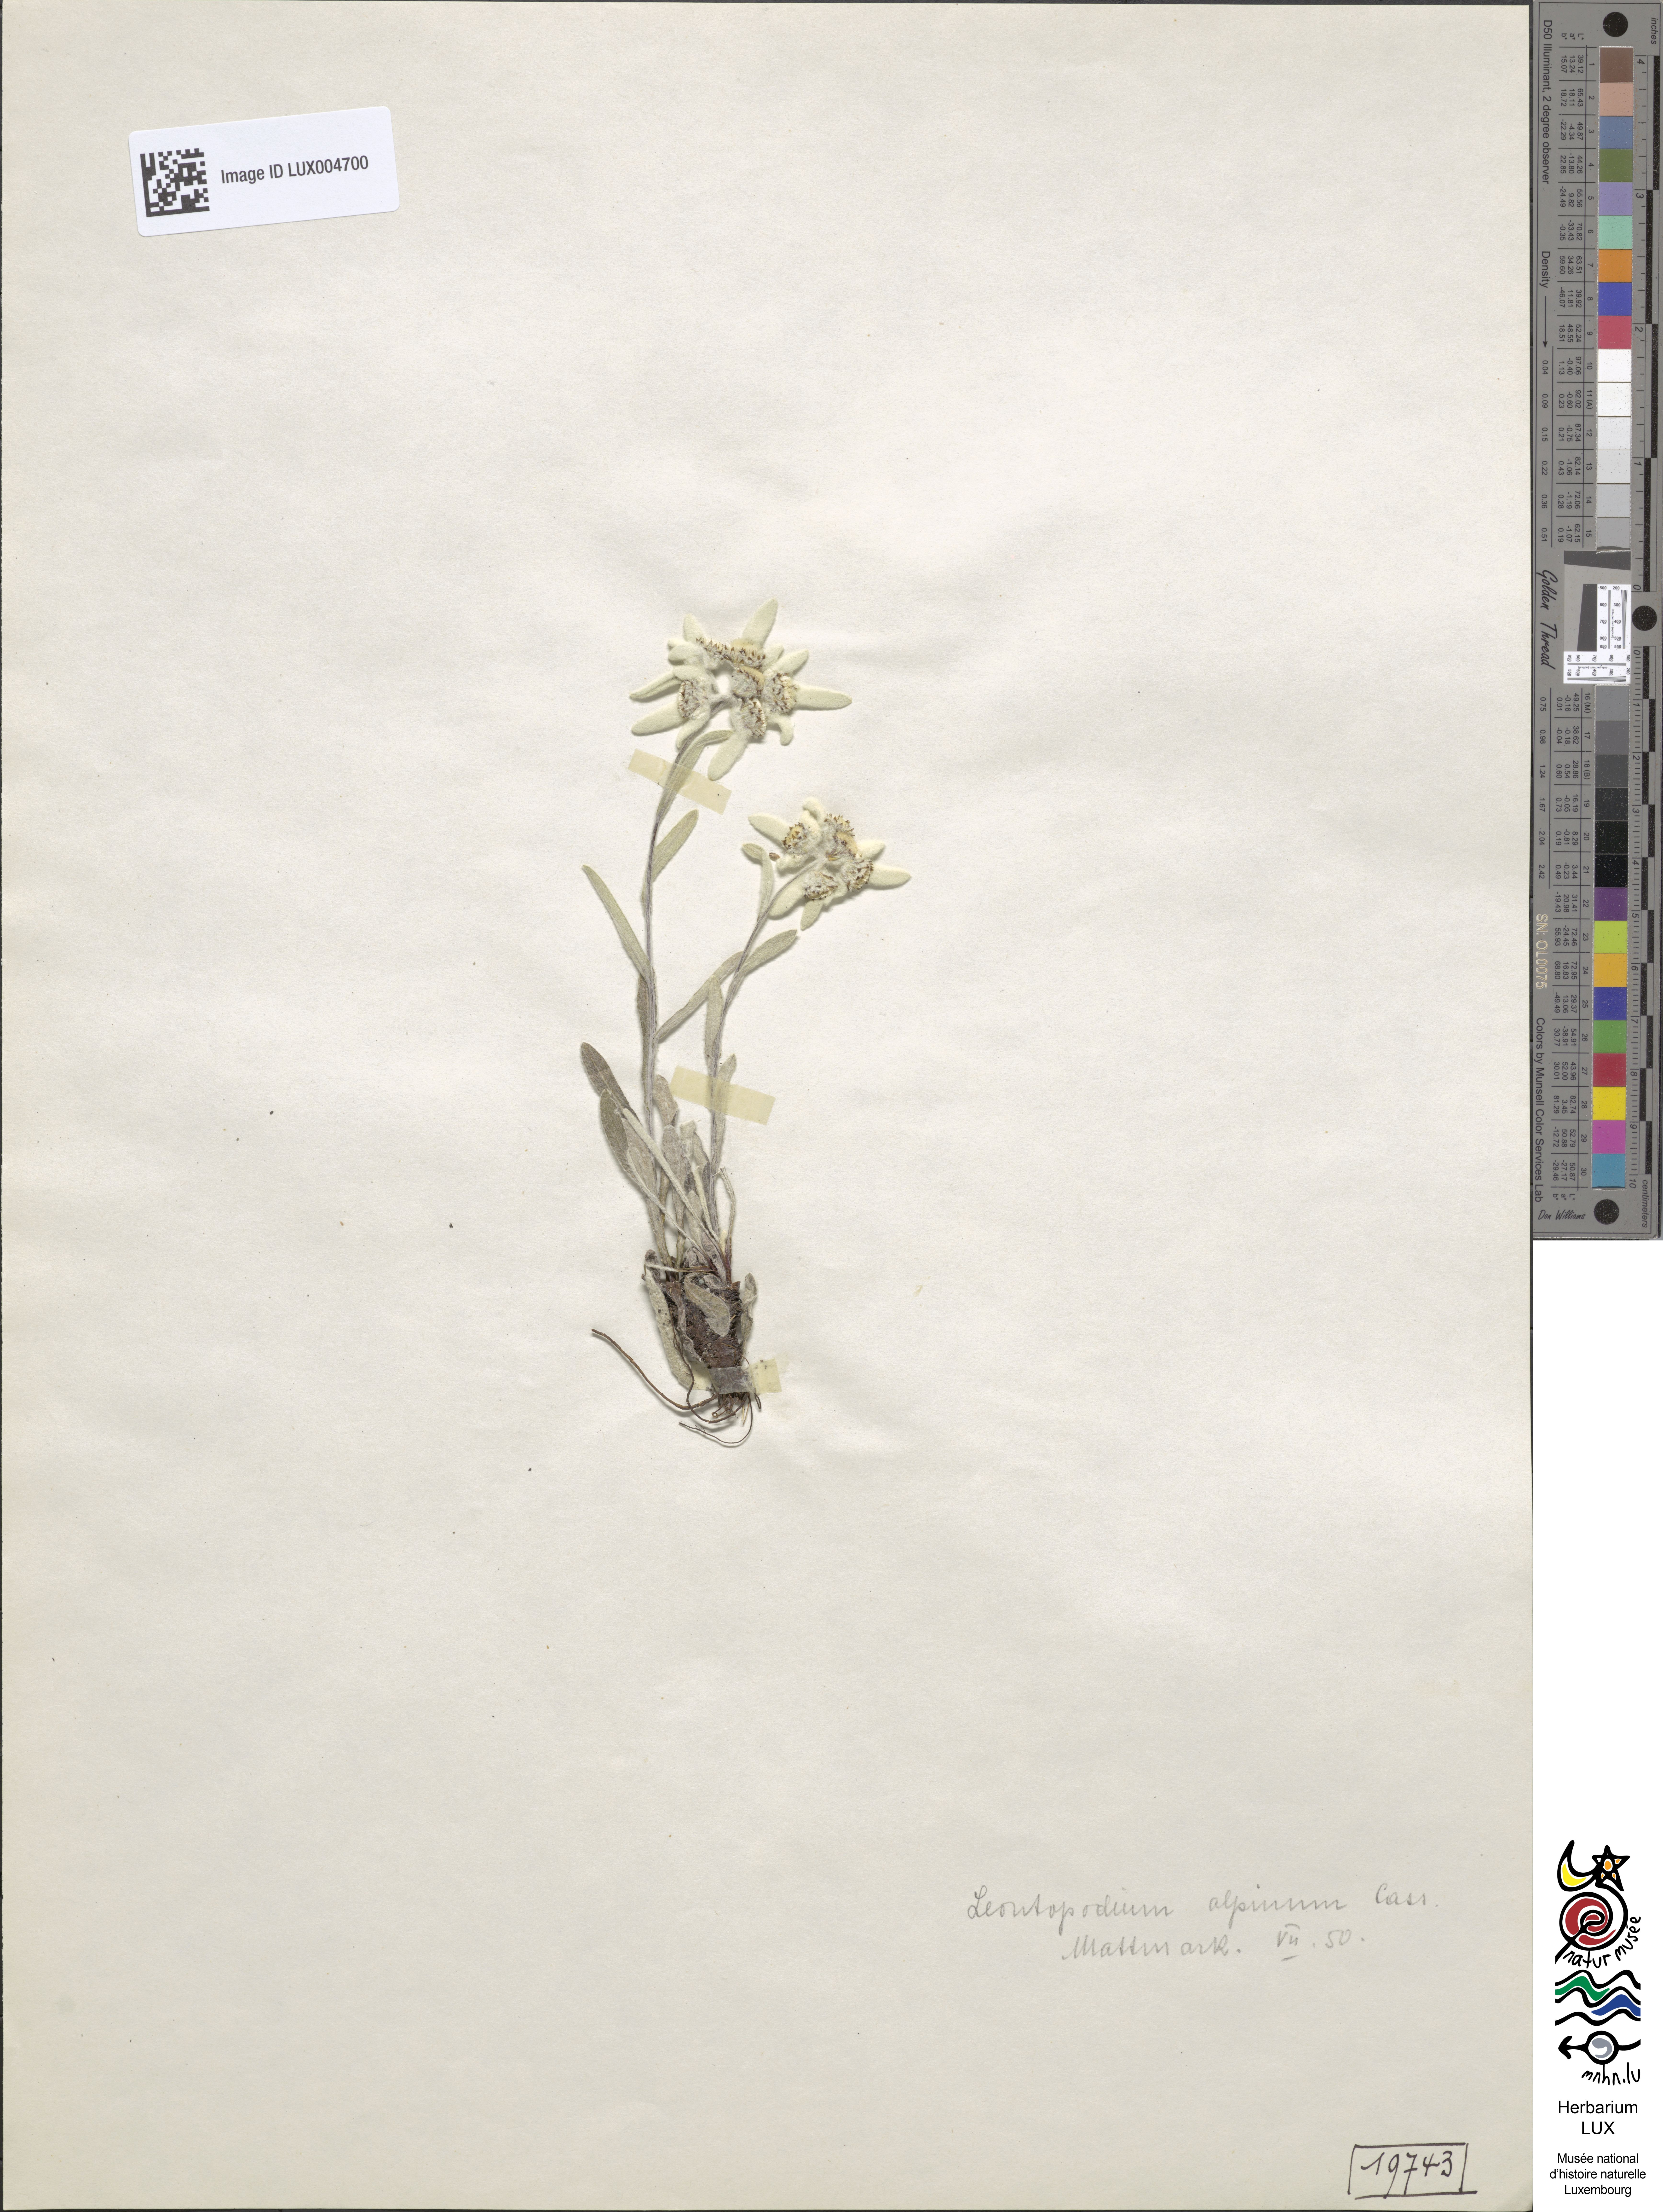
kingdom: Plantae
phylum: Tracheophyta
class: Magnoliopsida
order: Asterales
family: Asteraceae
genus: Leontopodium
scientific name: Leontopodium nivale
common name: Edelweiss
